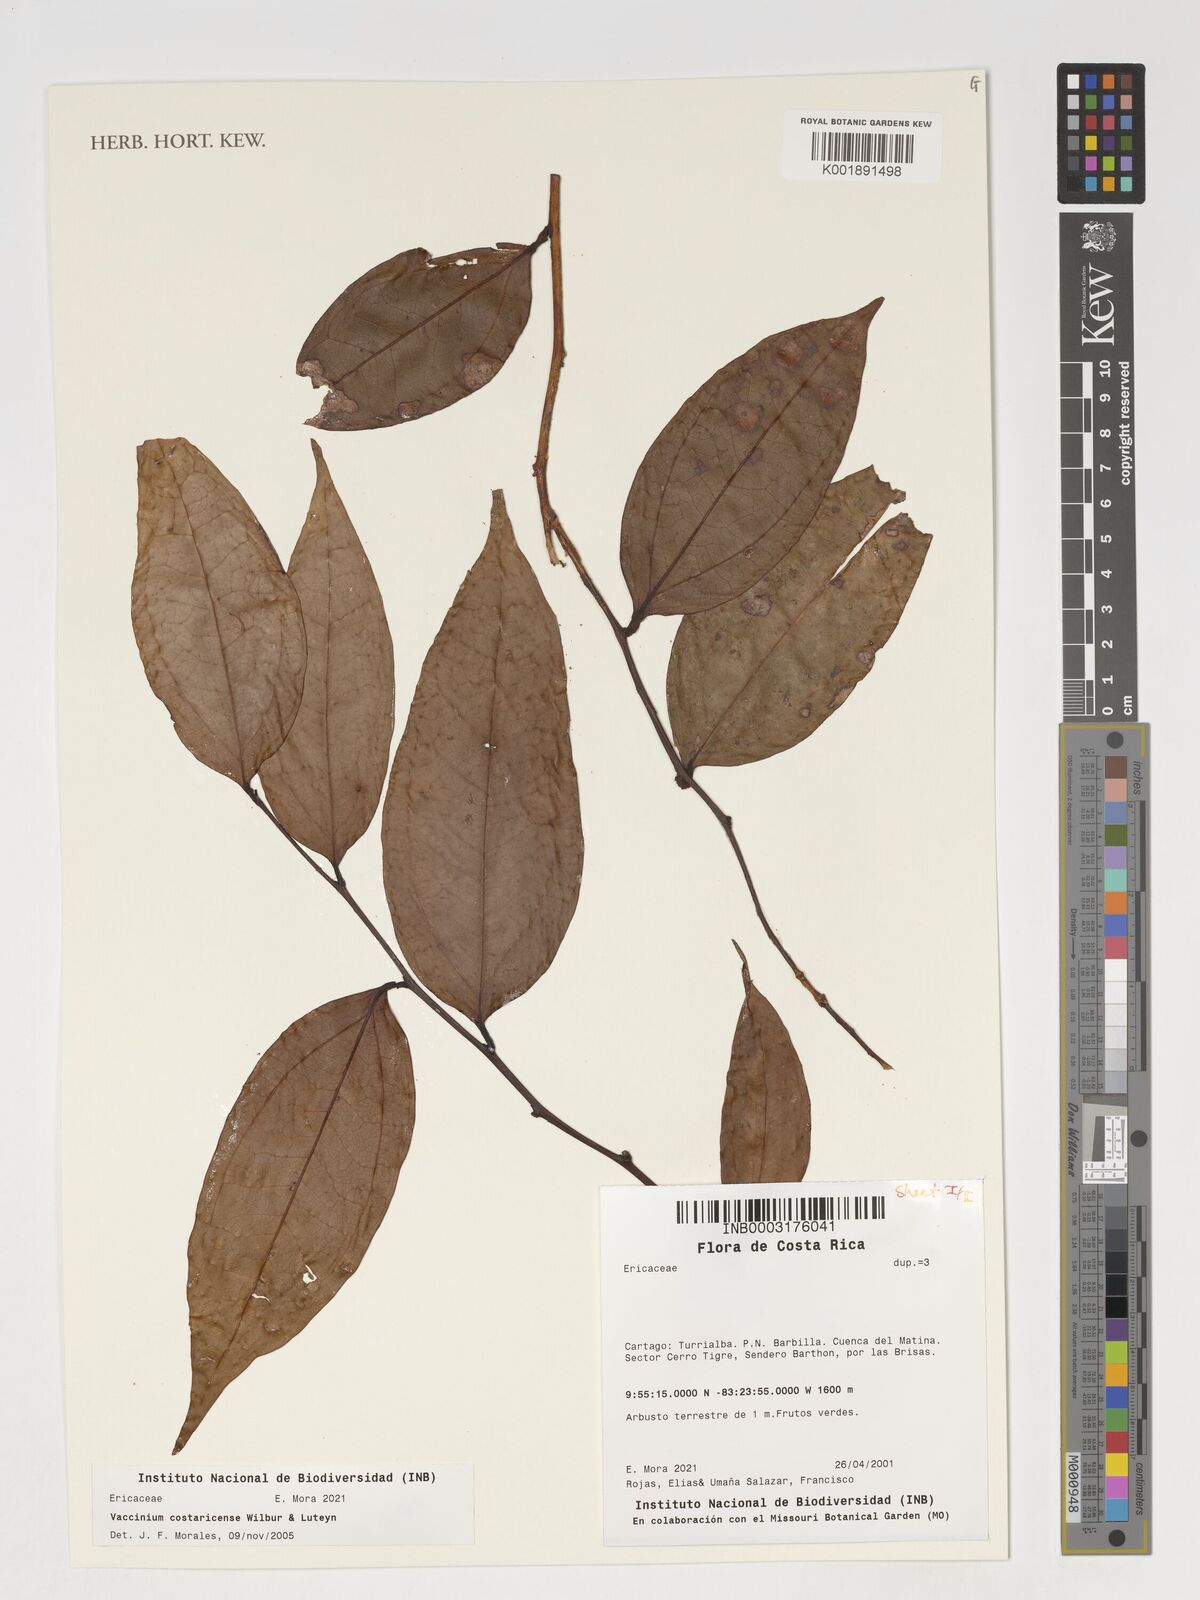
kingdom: Plantae
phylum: Tracheophyta
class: Magnoliopsida
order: Ericales
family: Ericaceae
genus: Symphysia
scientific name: Symphysia costaricensis
